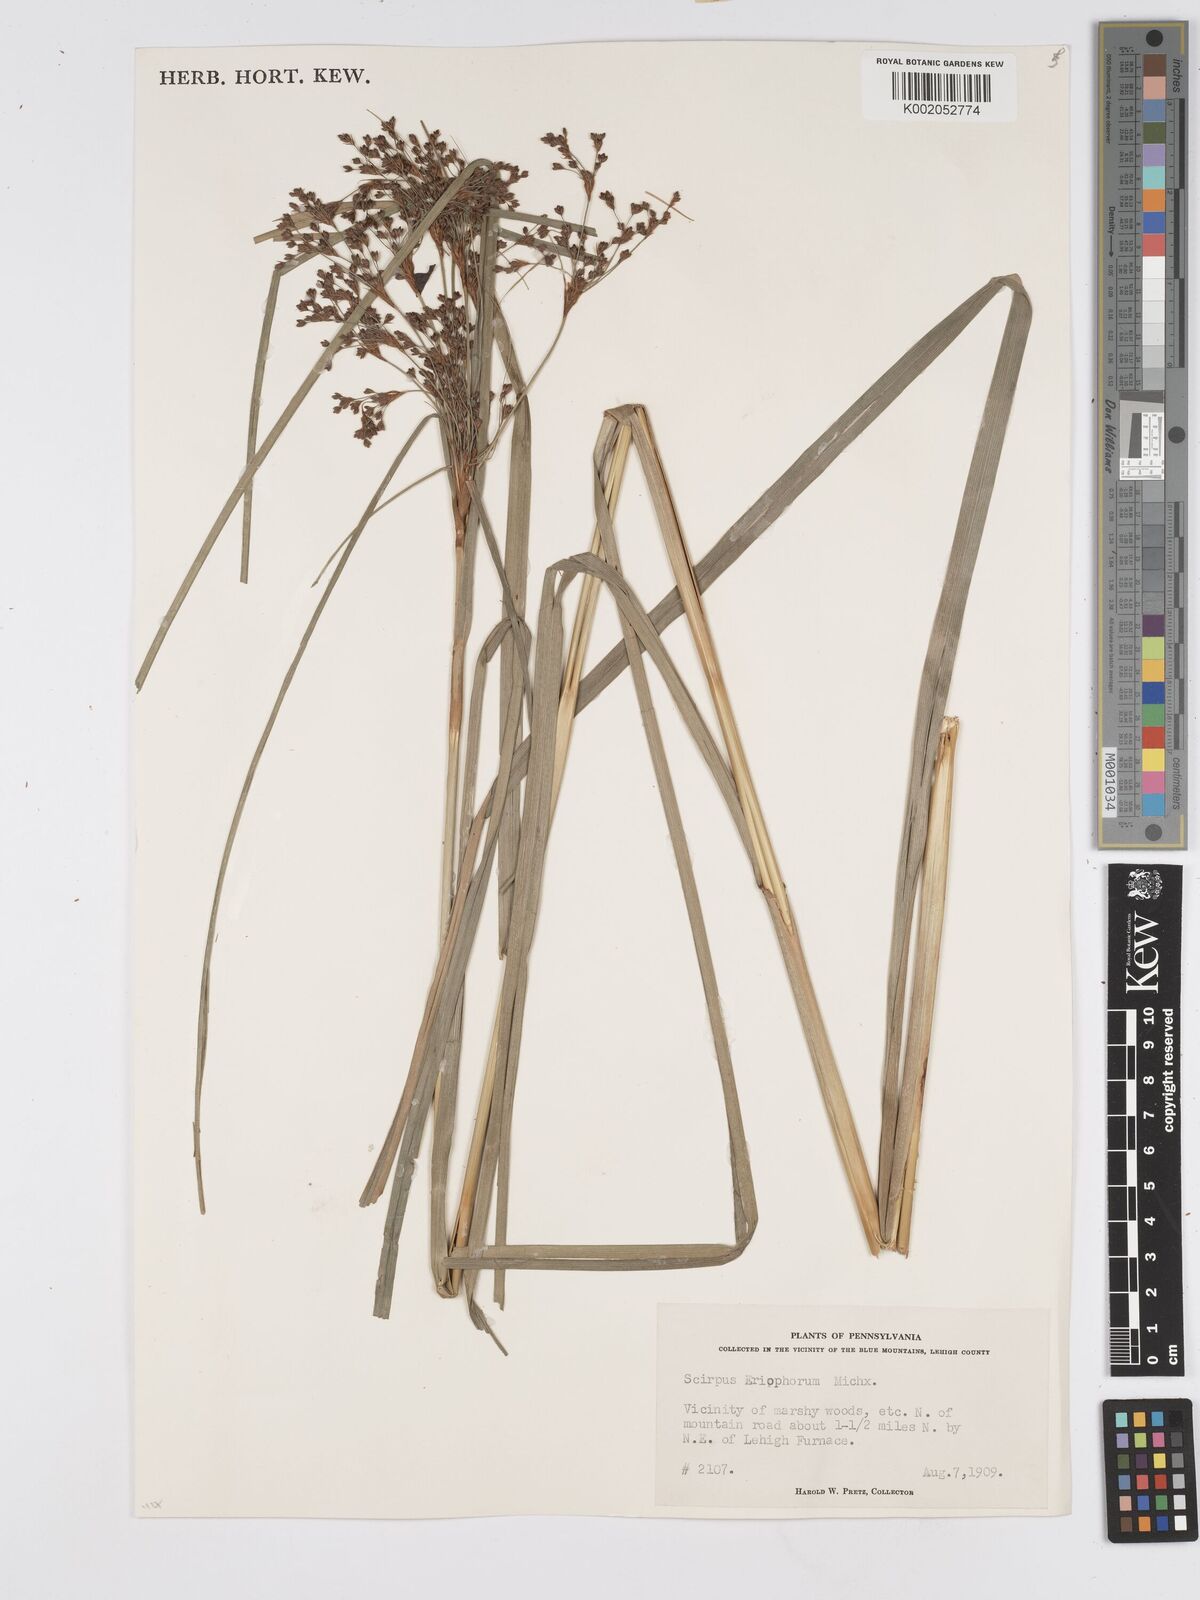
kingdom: Plantae
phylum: Tracheophyta
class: Liliopsida
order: Poales
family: Cyperaceae
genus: Scirpus
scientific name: Scirpus cyperinus
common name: Black-sheathed bulrush
